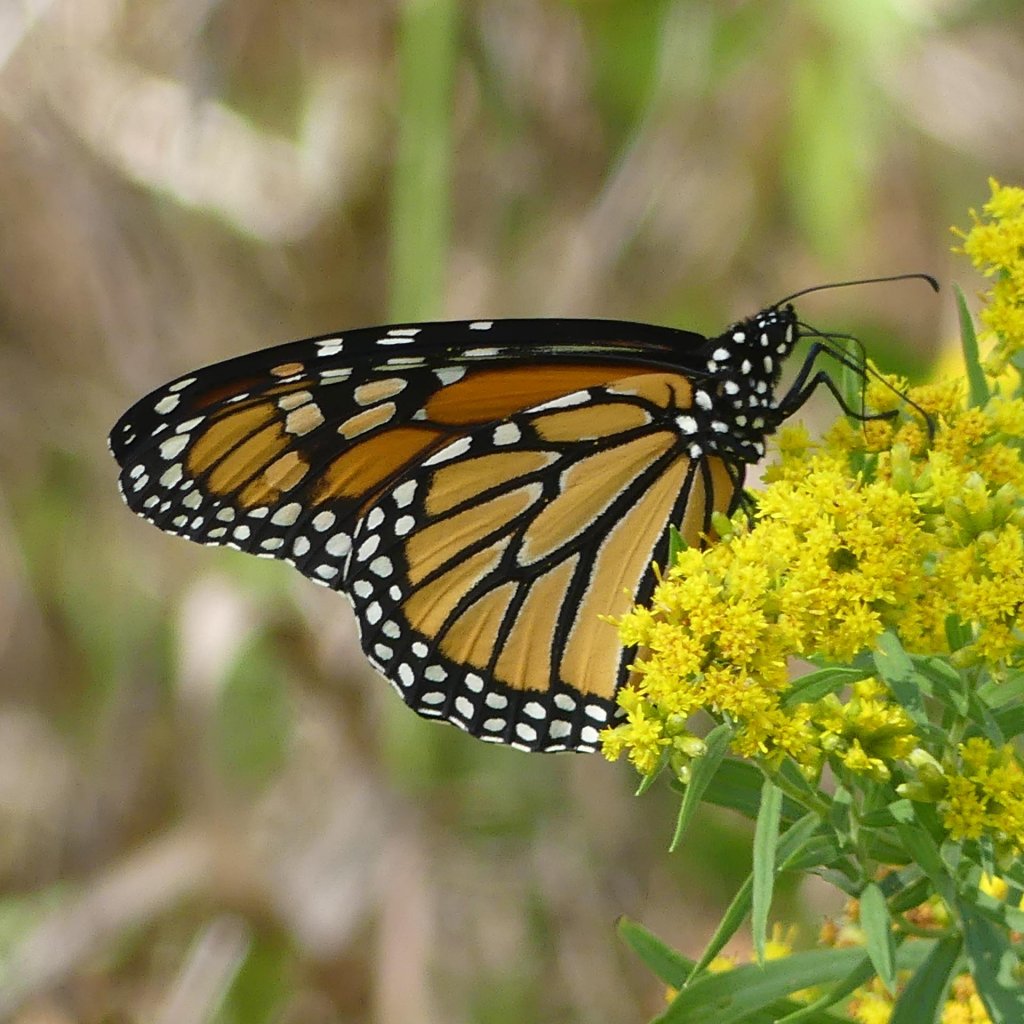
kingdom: Animalia
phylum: Arthropoda
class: Insecta
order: Lepidoptera
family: Nymphalidae
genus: Danaus
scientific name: Danaus plexippus
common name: Monarch
